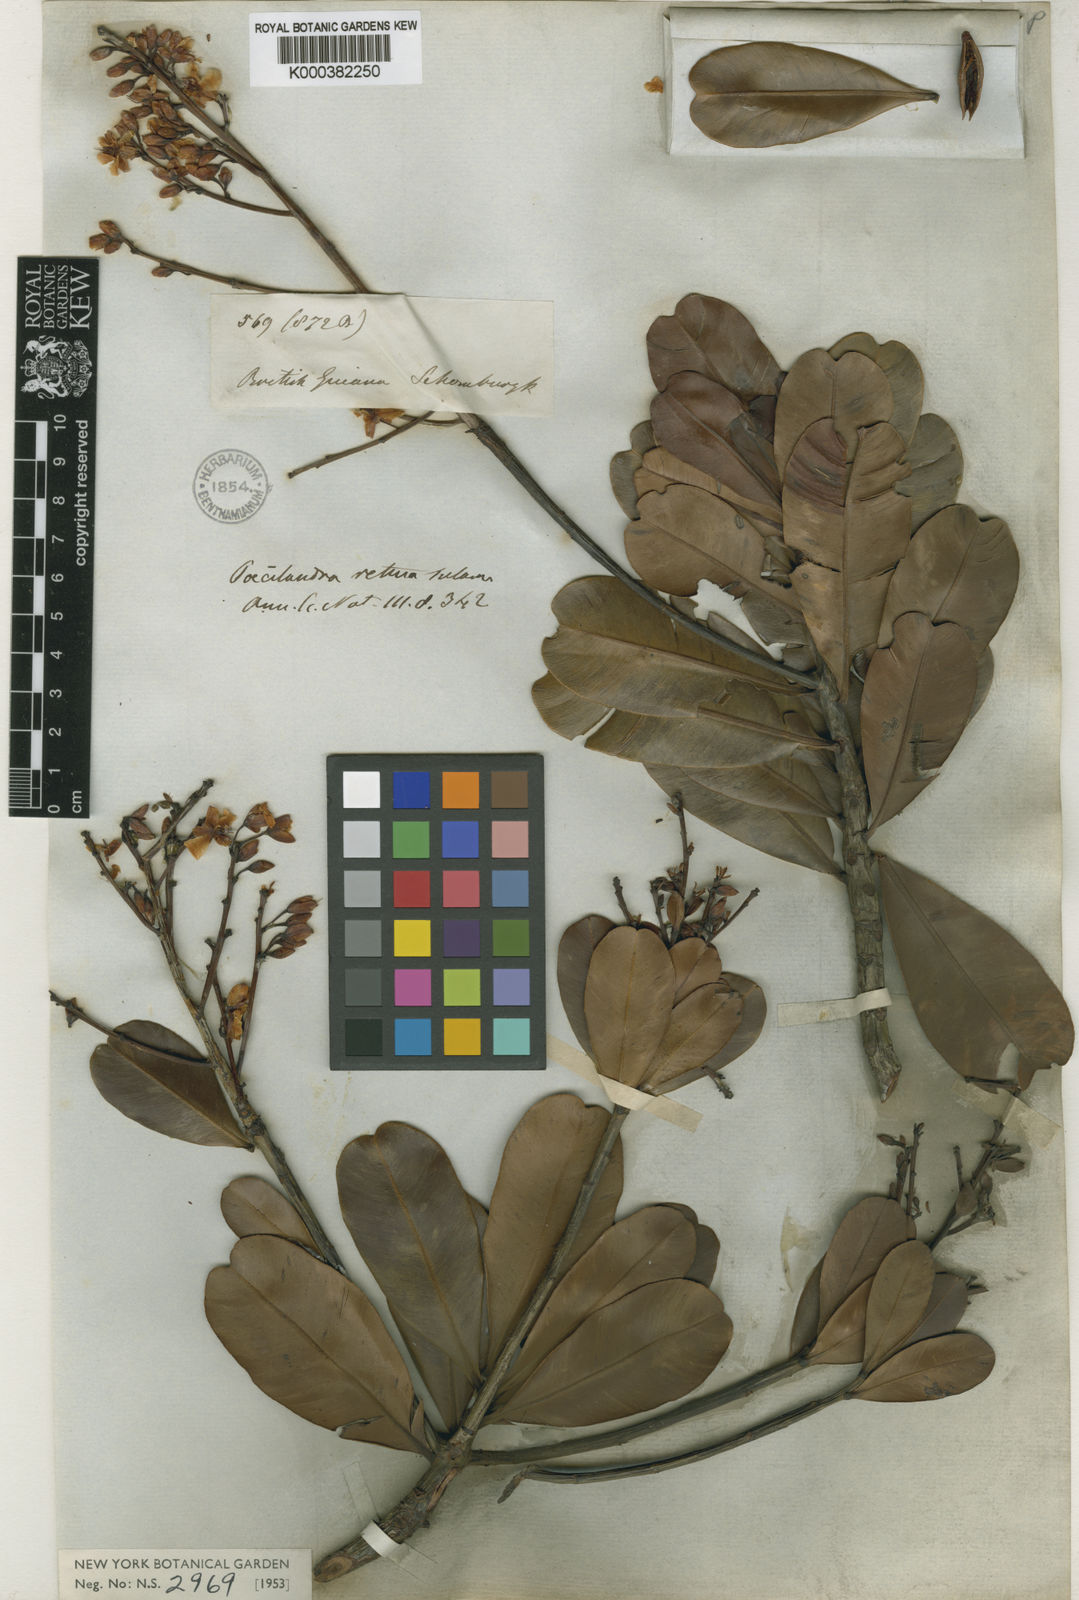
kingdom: Plantae
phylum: Tracheophyta
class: Magnoliopsida
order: Malpighiales
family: Ochnaceae
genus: Poecilandra
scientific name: Poecilandra retusa
